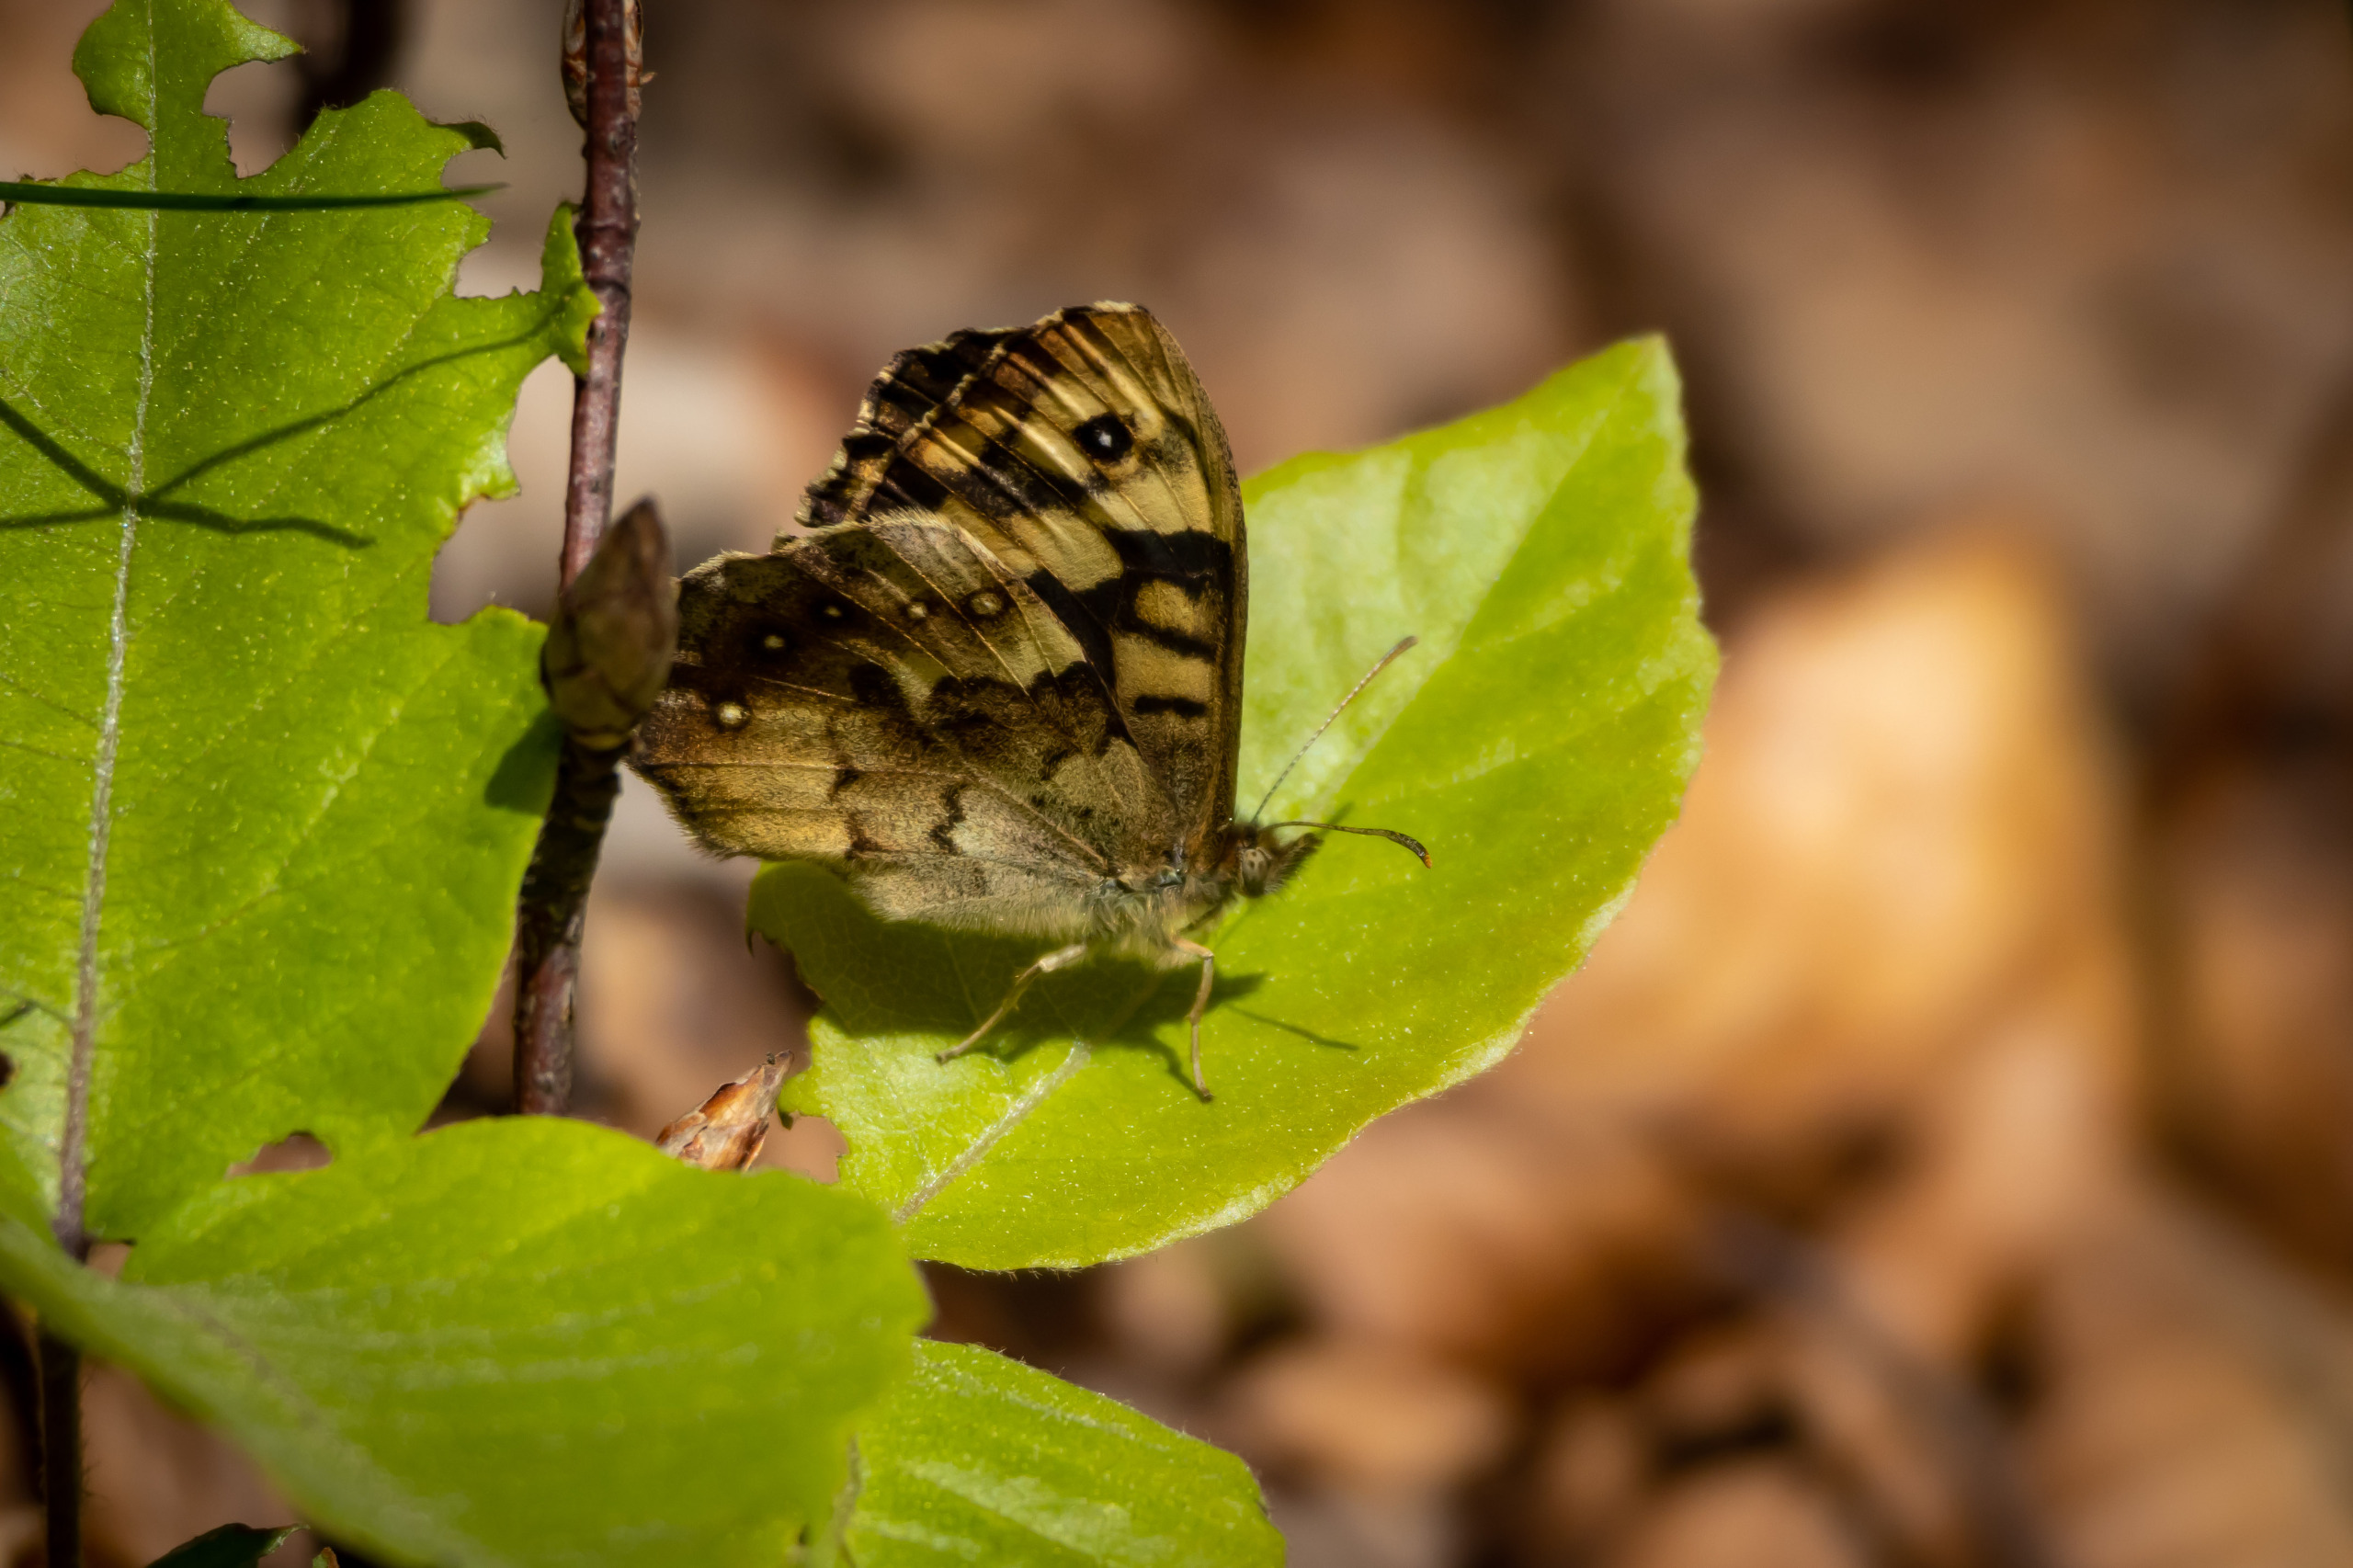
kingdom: Animalia
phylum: Arthropoda
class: Insecta
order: Lepidoptera
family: Nymphalidae
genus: Pararge
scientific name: Pararge aegeria
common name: Skovrandøje
